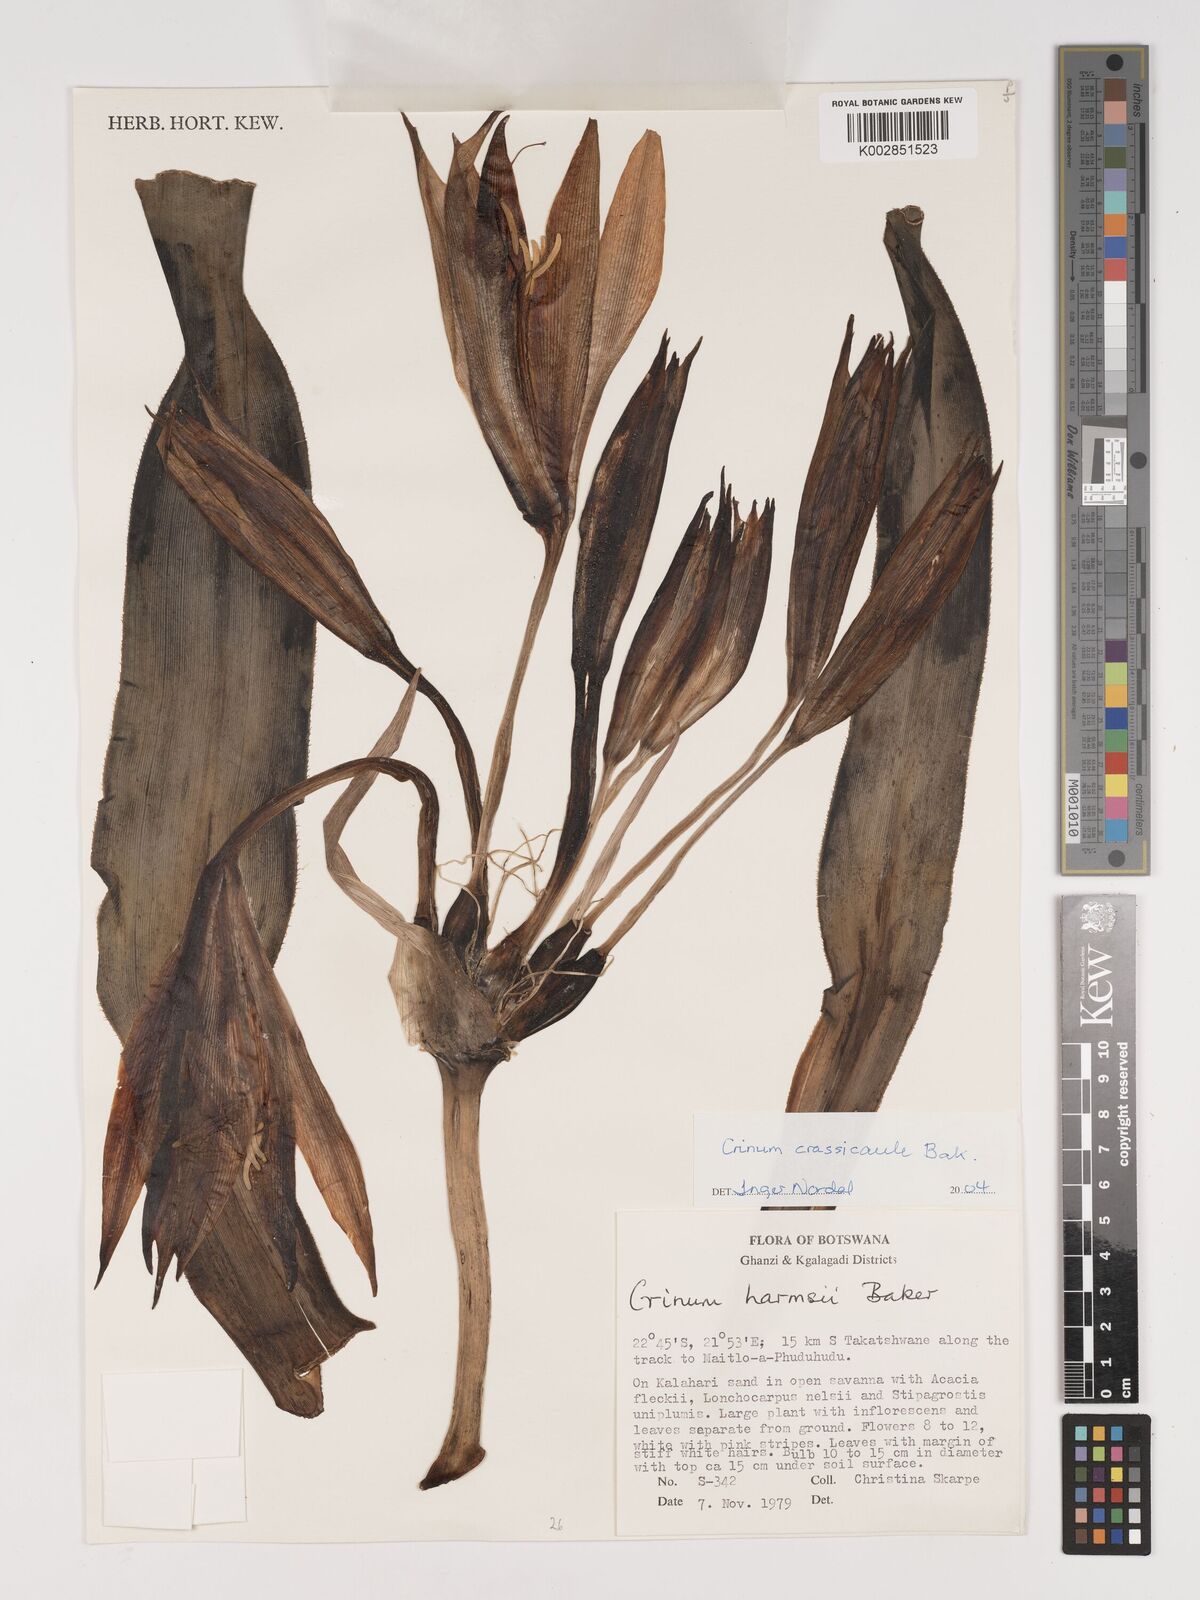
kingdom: Plantae
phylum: Tracheophyta
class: Liliopsida
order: Asparagales
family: Amaryllidaceae
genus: Crinum
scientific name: Crinum crassicaule
